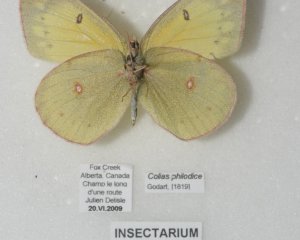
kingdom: Animalia
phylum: Arthropoda
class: Insecta
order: Lepidoptera
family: Pieridae
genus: Colias
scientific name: Colias philodice
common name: Clouded Sulphur
